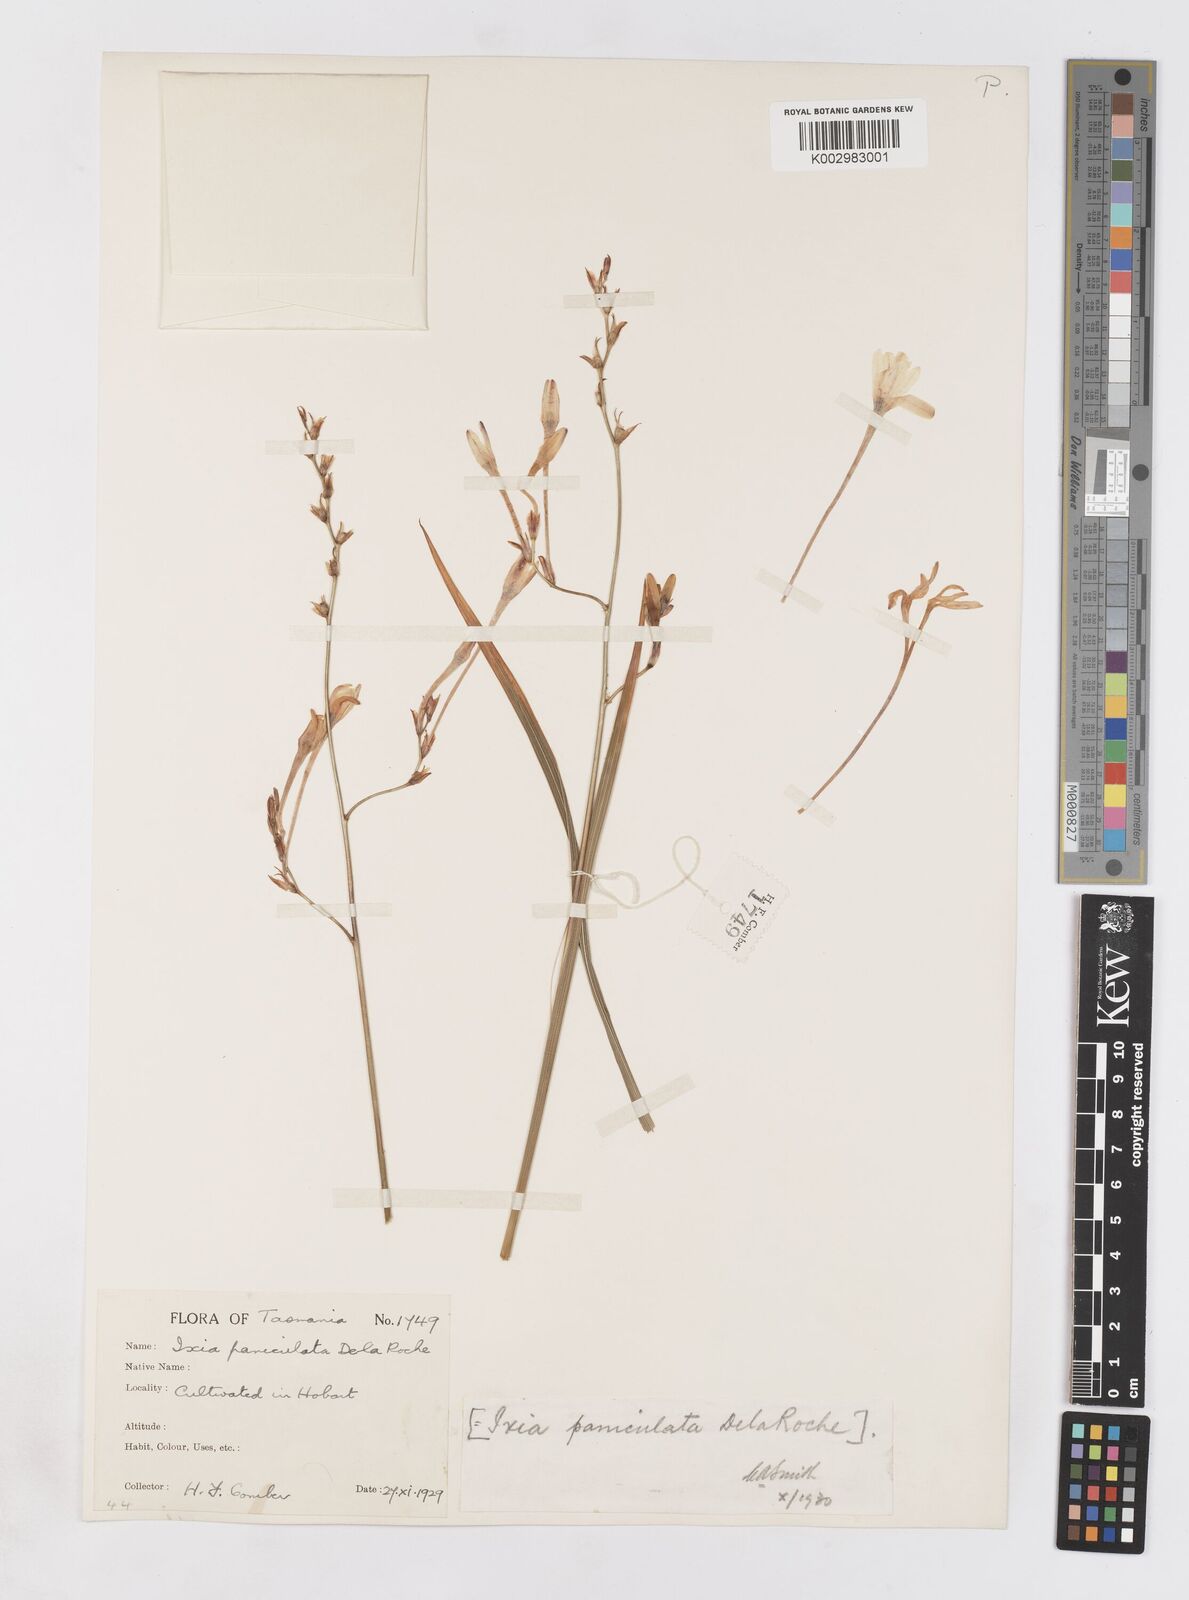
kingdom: Plantae
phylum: Tracheophyta
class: Liliopsida
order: Asparagales
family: Iridaceae
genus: Ixia
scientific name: Ixia paniculata
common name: Tubular corn-lily
